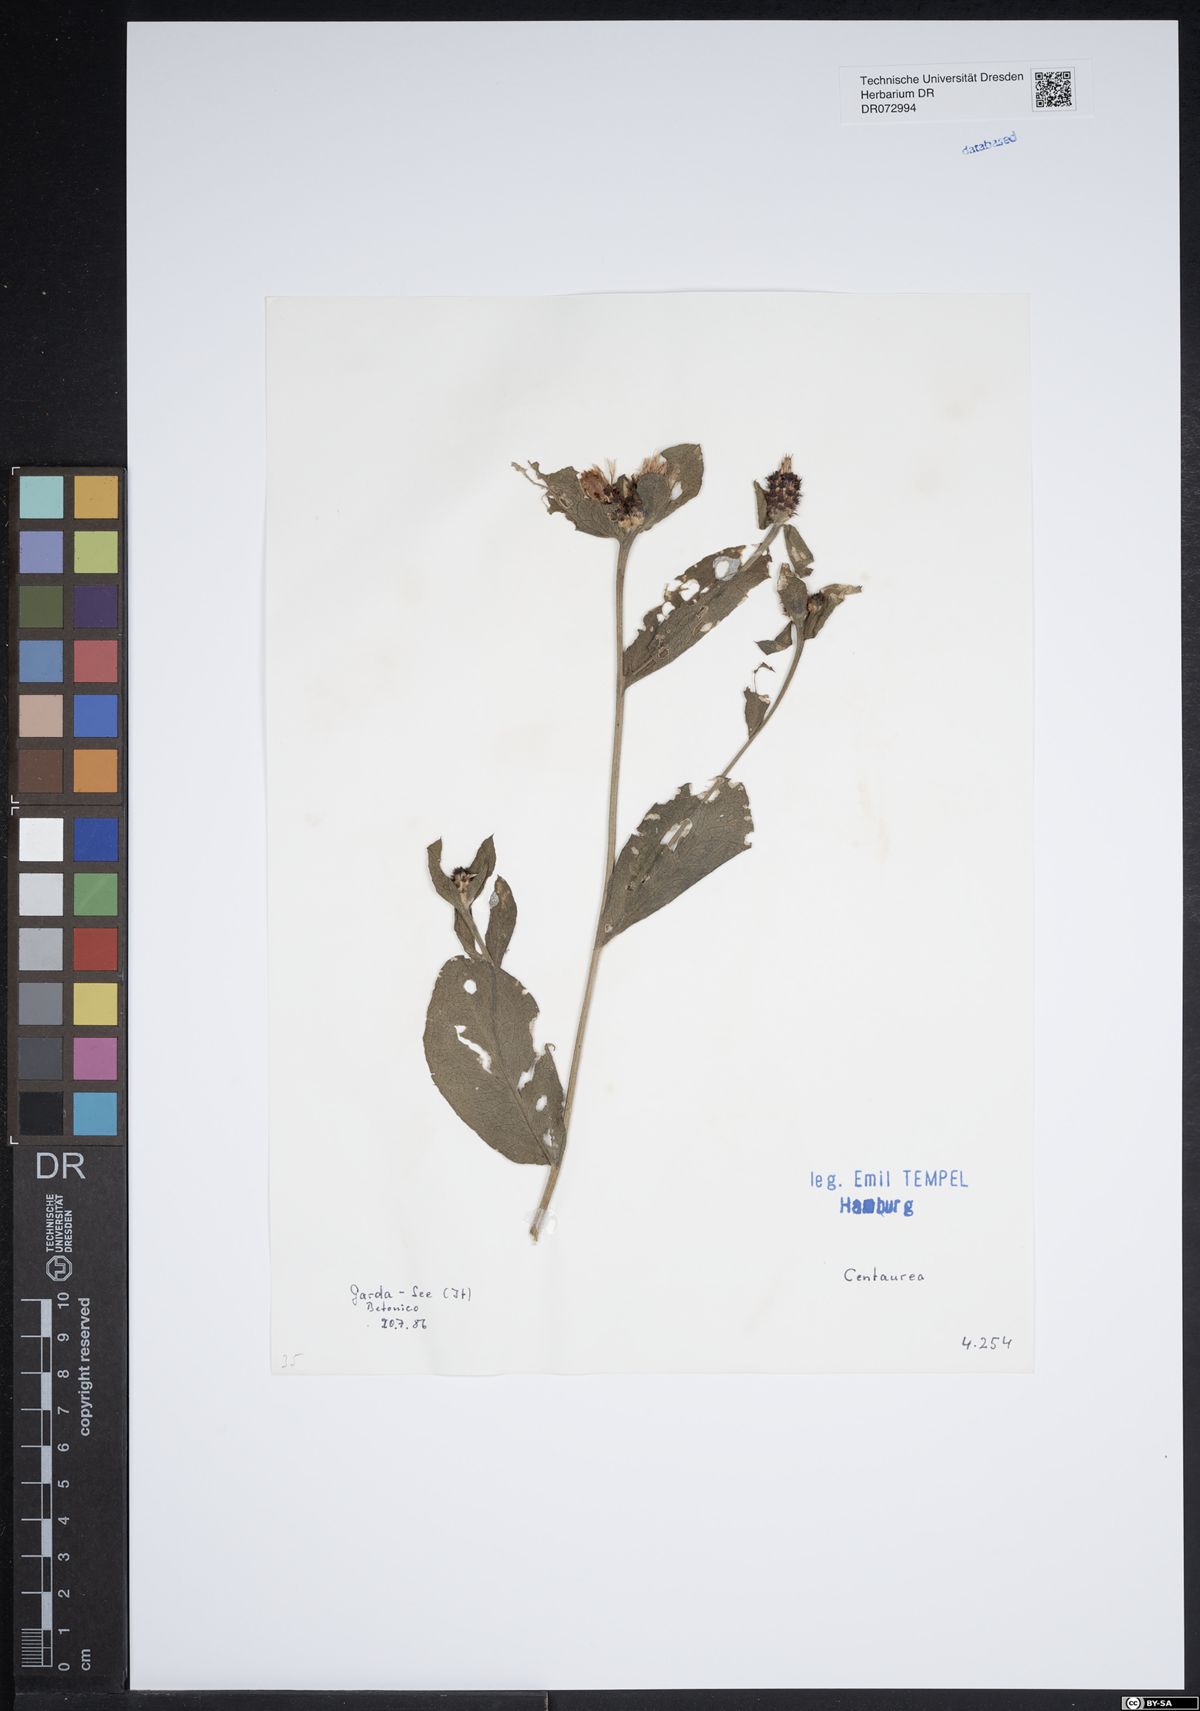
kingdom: Plantae
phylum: Tracheophyta
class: Magnoliopsida
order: Asterales
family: Asteraceae
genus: Centaurea
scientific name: Centaurea
